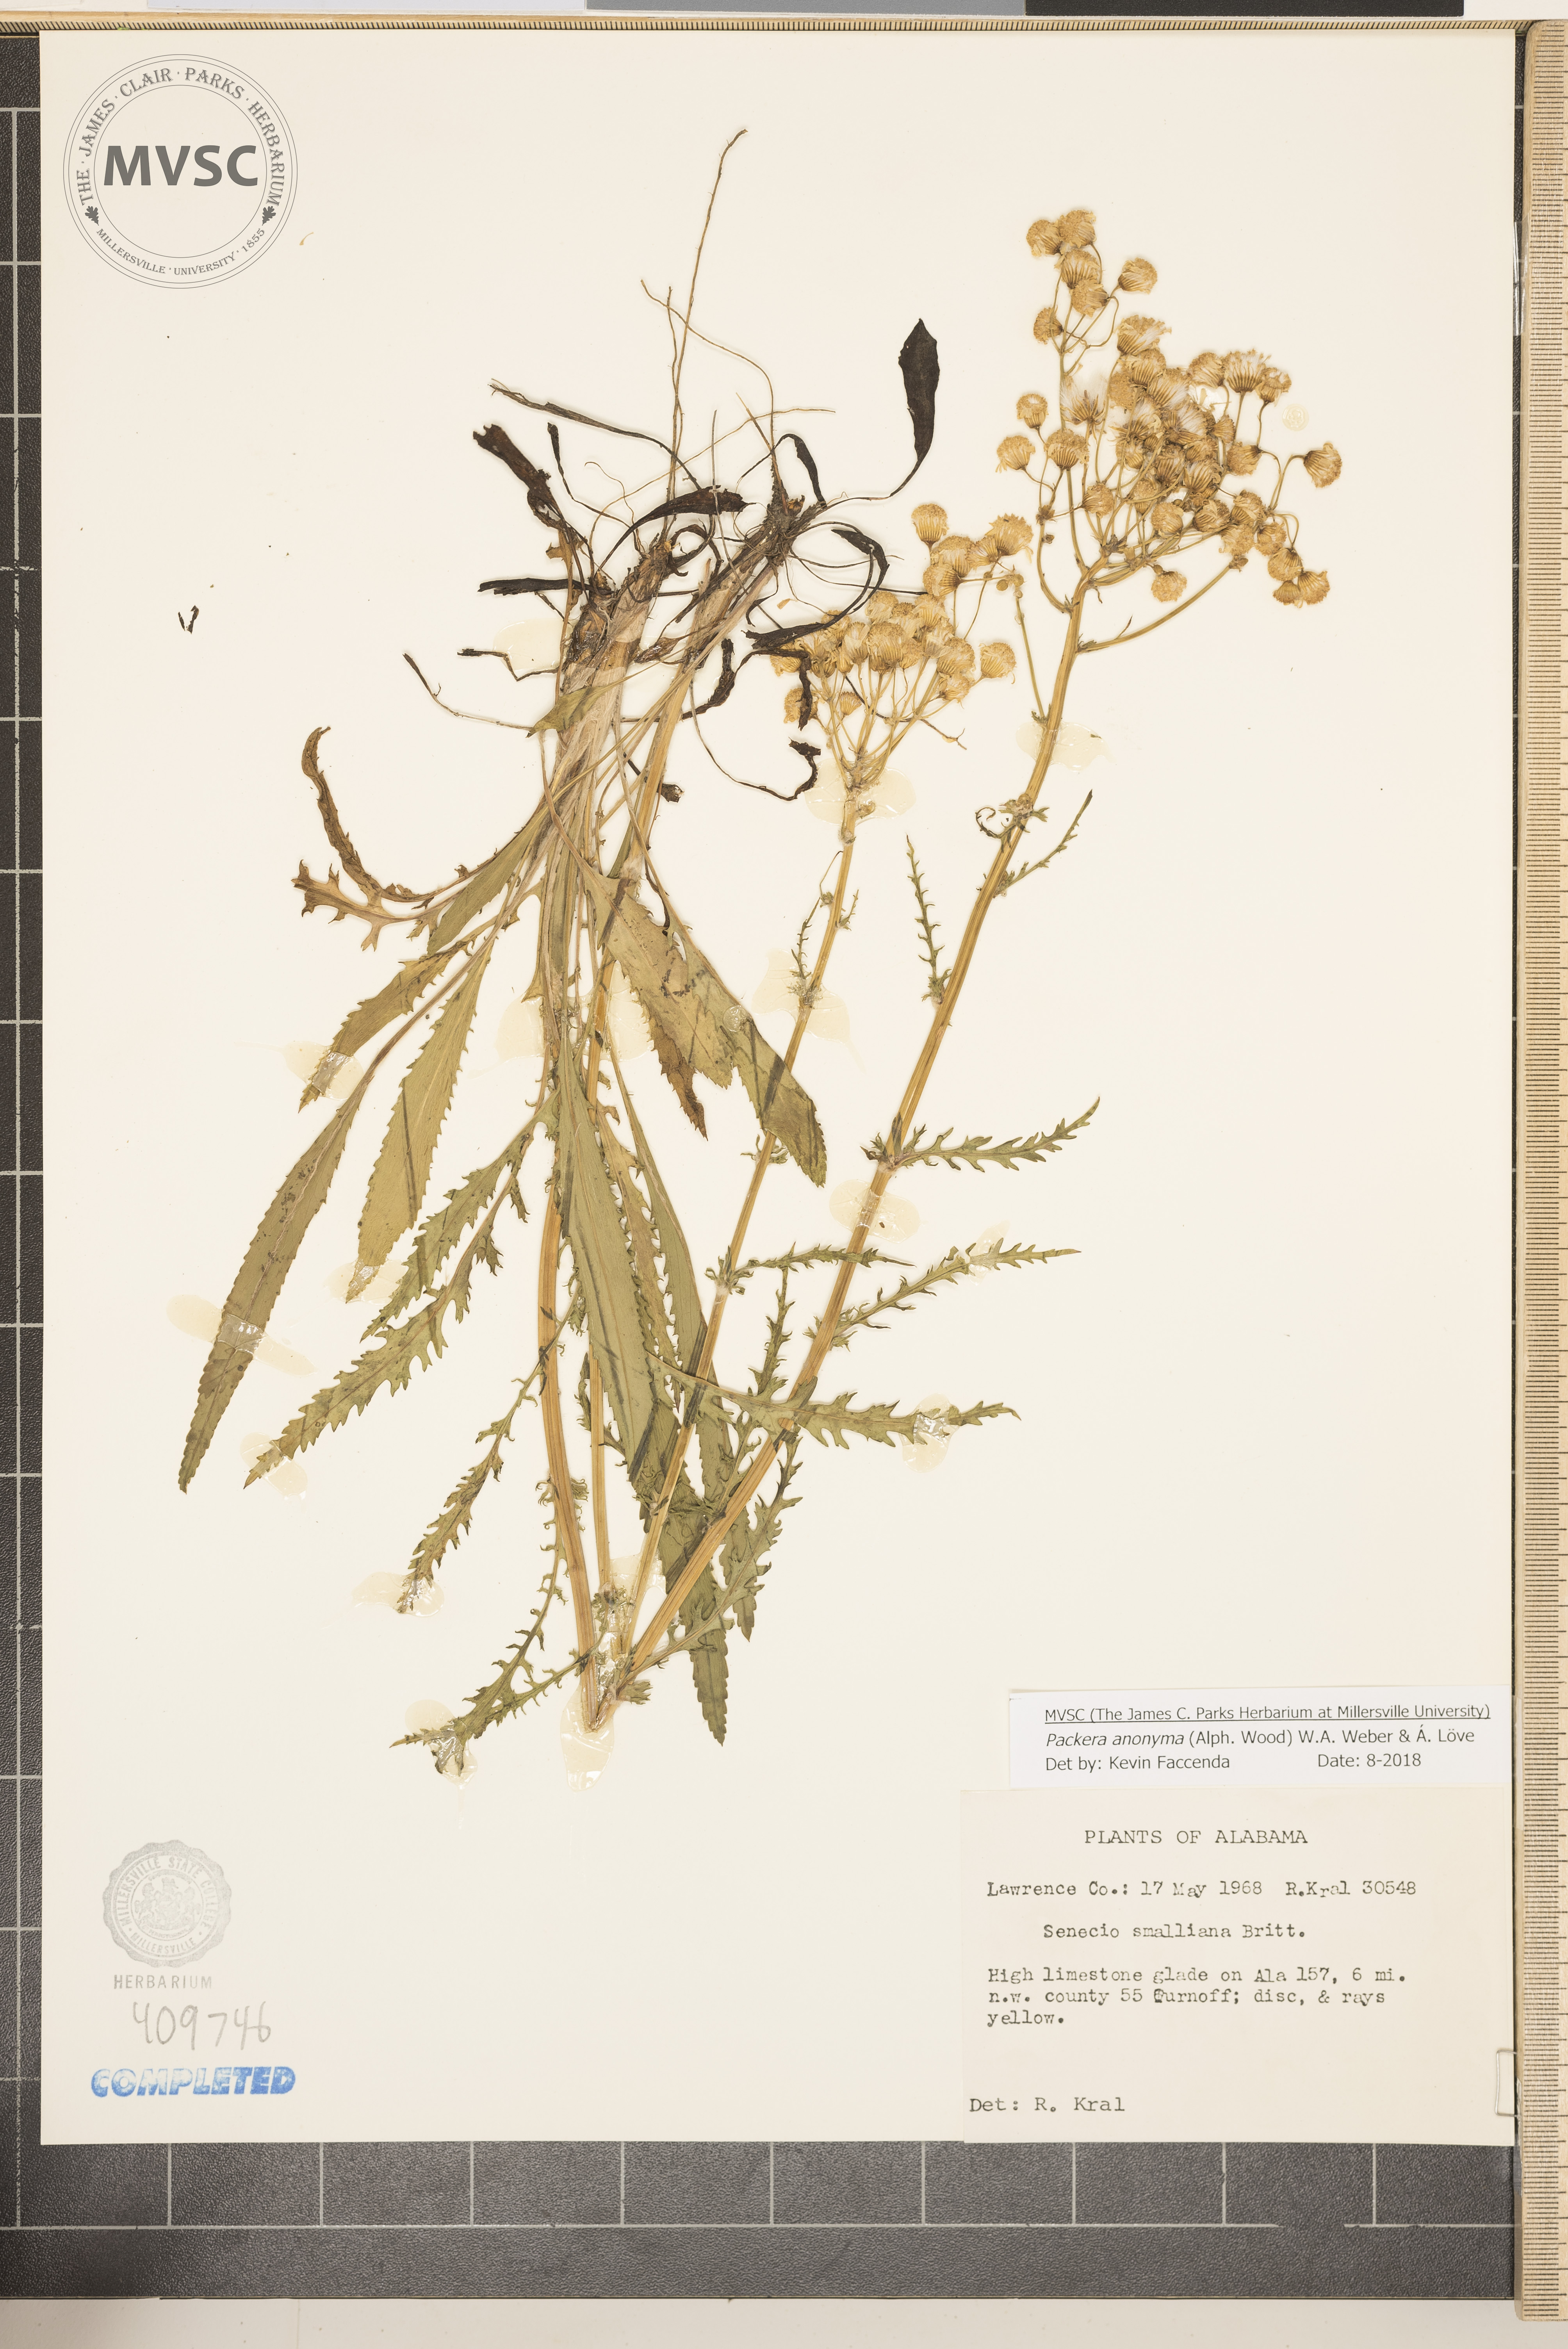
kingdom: Plantae
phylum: Tracheophyta
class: Magnoliopsida
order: Asterales
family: Asteraceae
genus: Packera
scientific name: Packera anonyma
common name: Small ragwort
